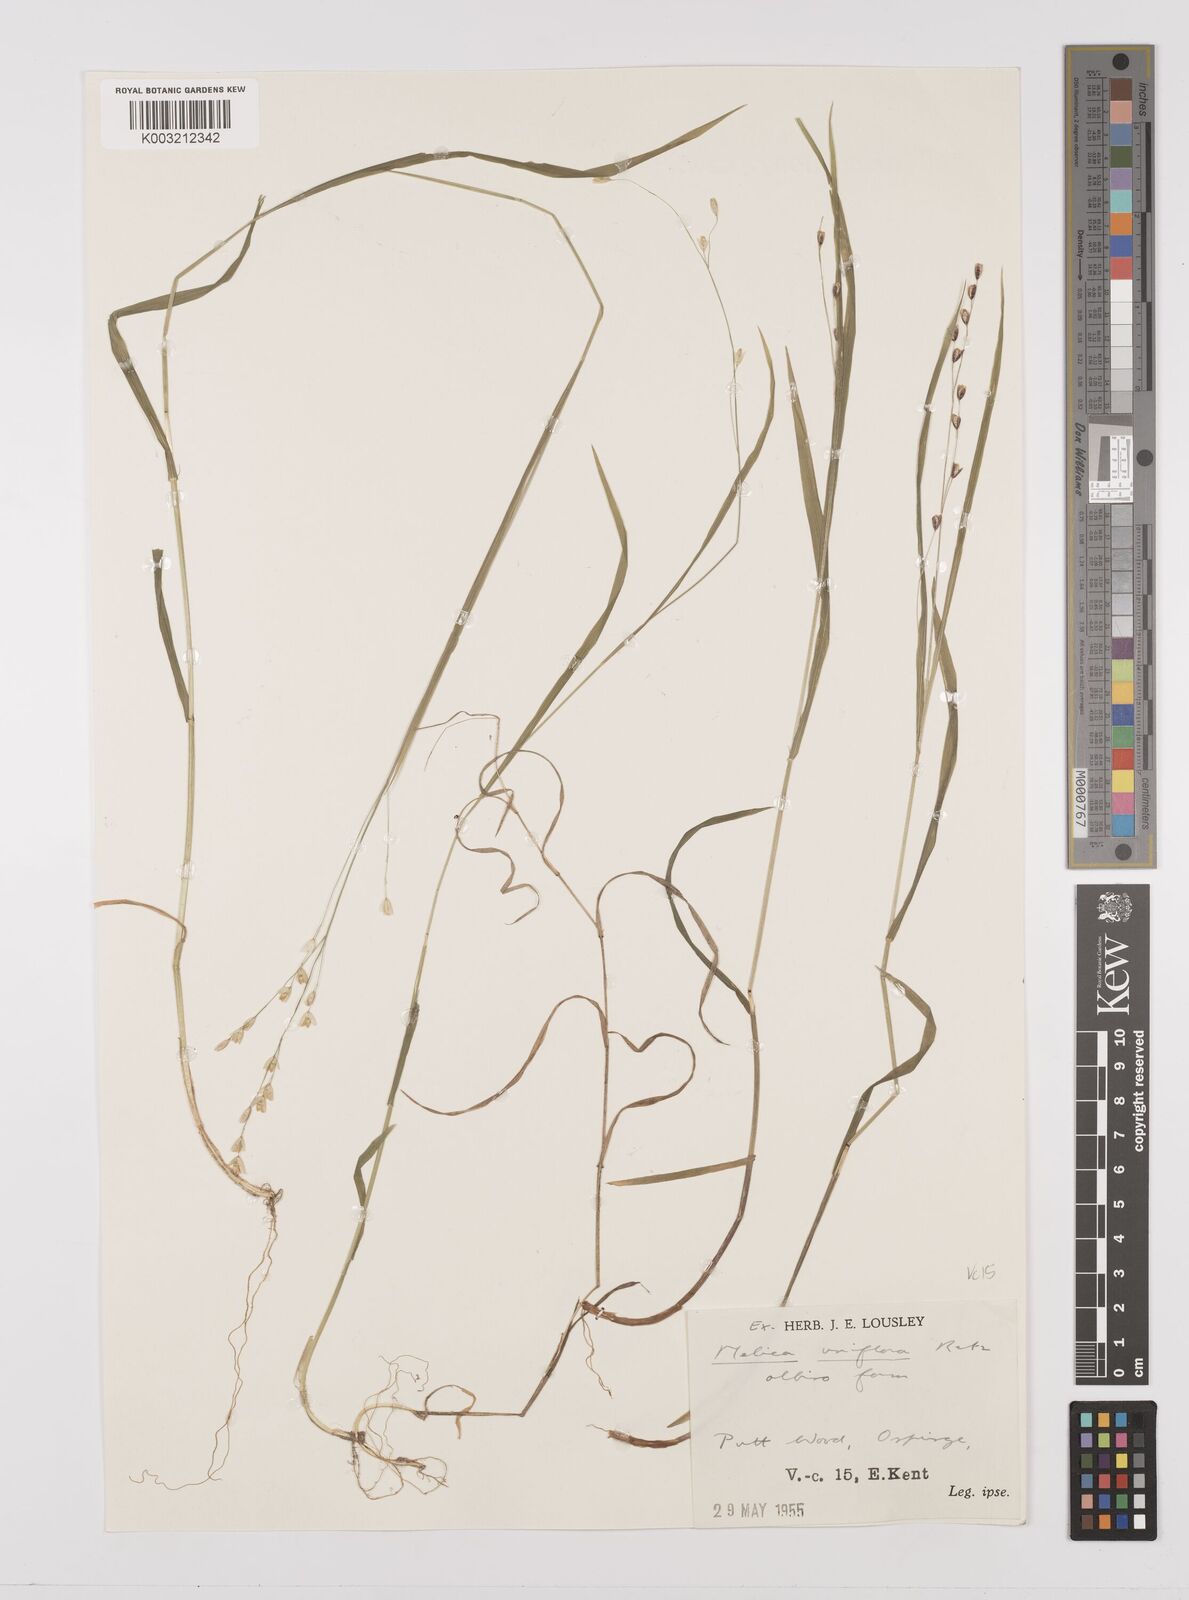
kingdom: Plantae
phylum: Tracheophyta
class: Liliopsida
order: Poales
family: Poaceae
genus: Melica
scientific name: Melica uniflora
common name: Wood melick
